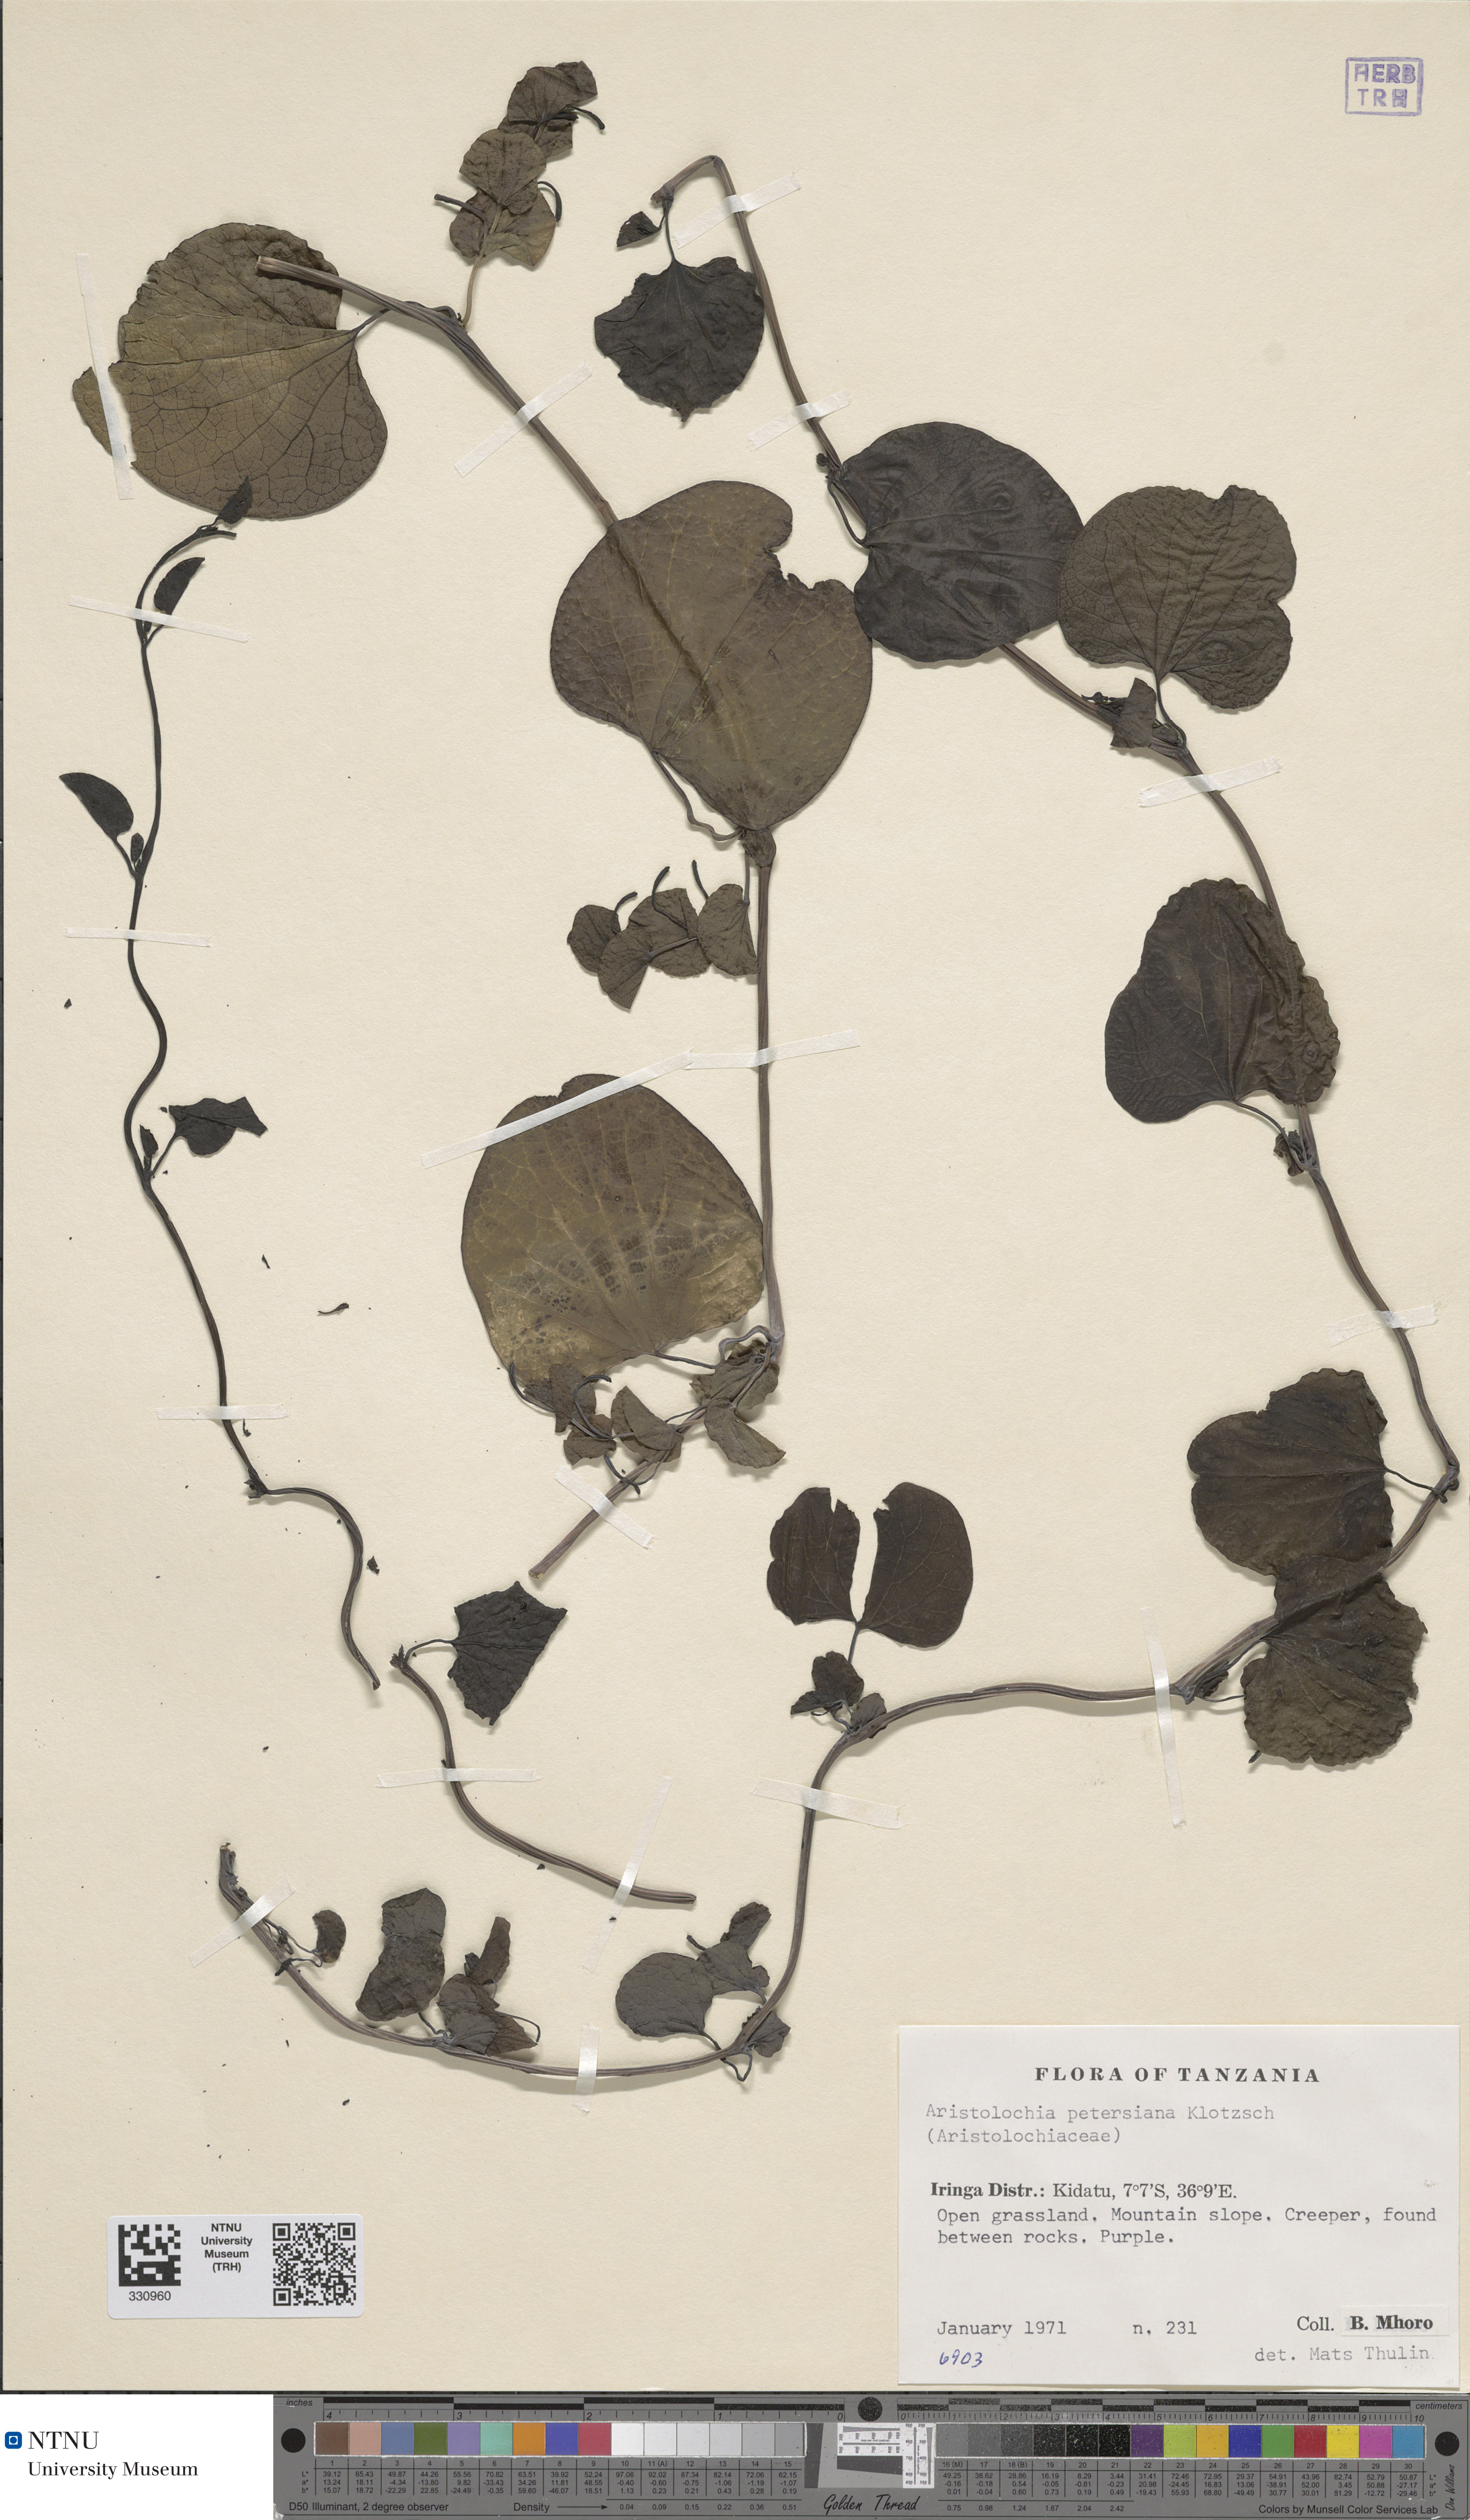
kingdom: Plantae
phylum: Tracheophyta
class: Magnoliopsida
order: Piperales
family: Aristolochiaceae
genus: Aristolochia
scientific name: Aristolochia albida
